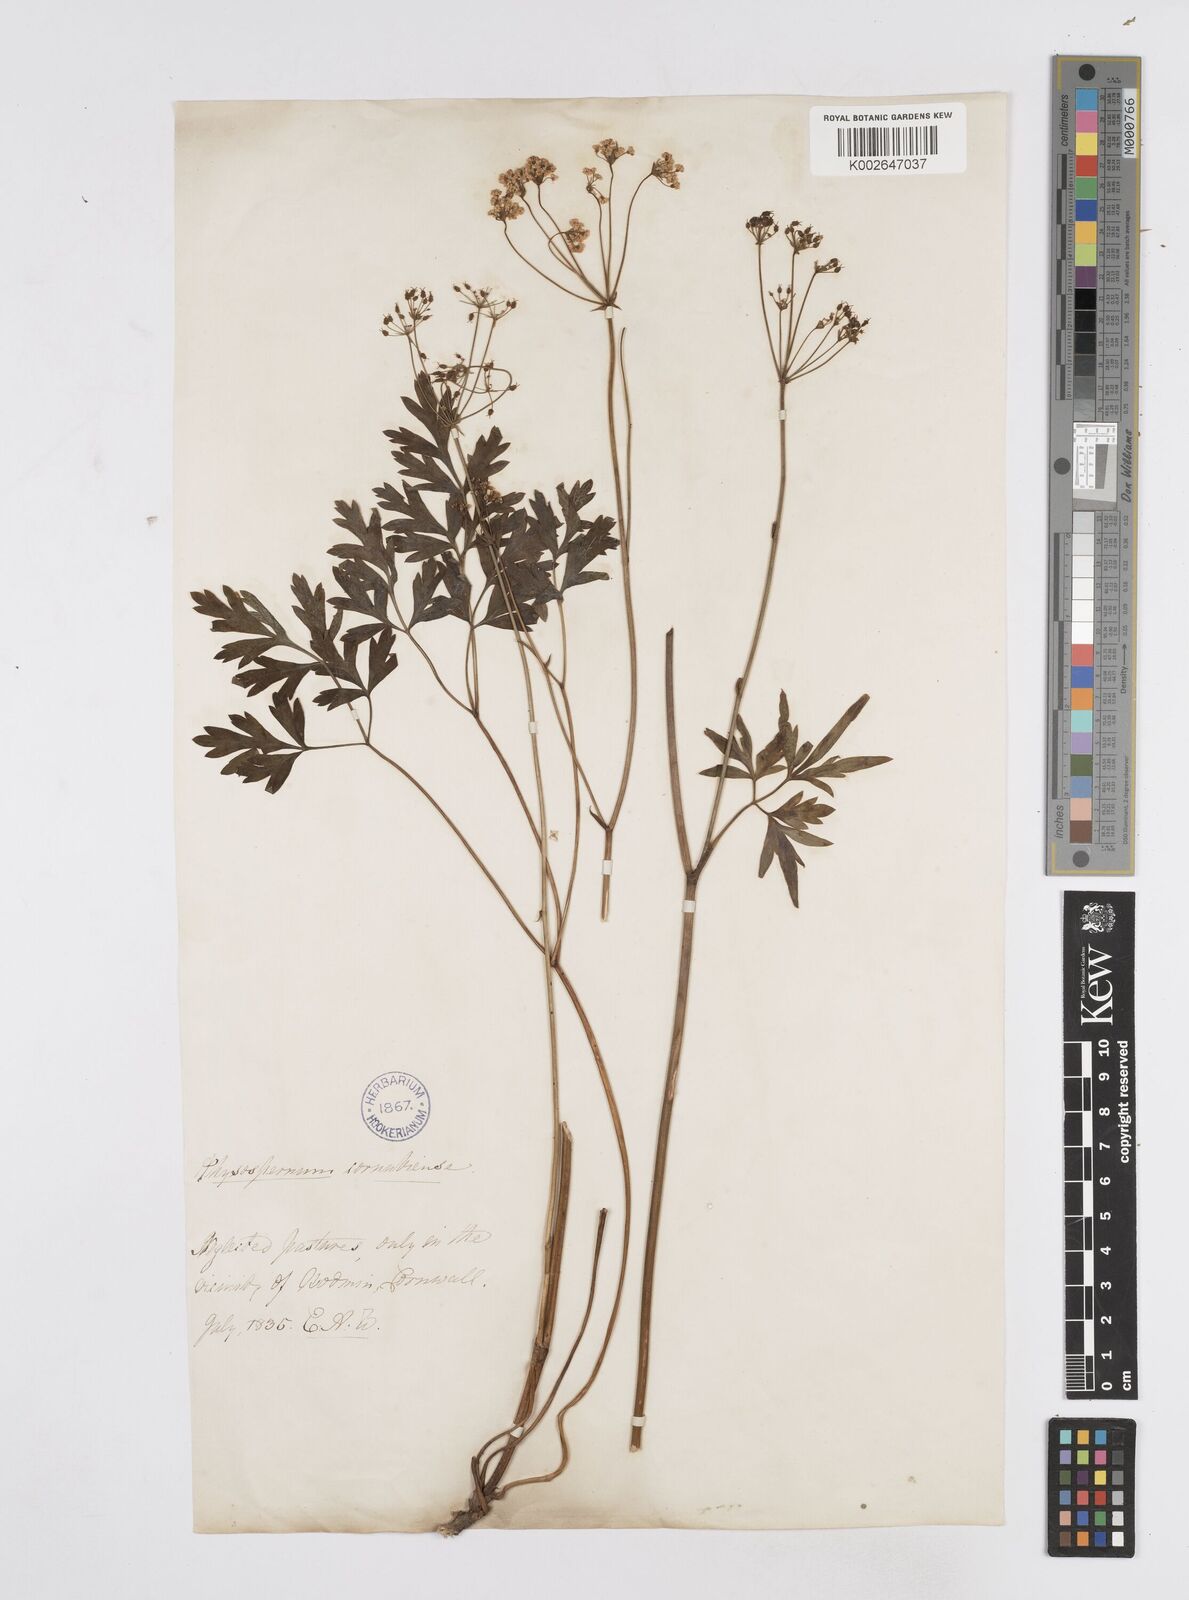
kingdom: Plantae
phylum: Tracheophyta
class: Magnoliopsida
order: Apiales
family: Apiaceae
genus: Physospermum
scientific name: Physospermum cornubiense
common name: Bladderseed
